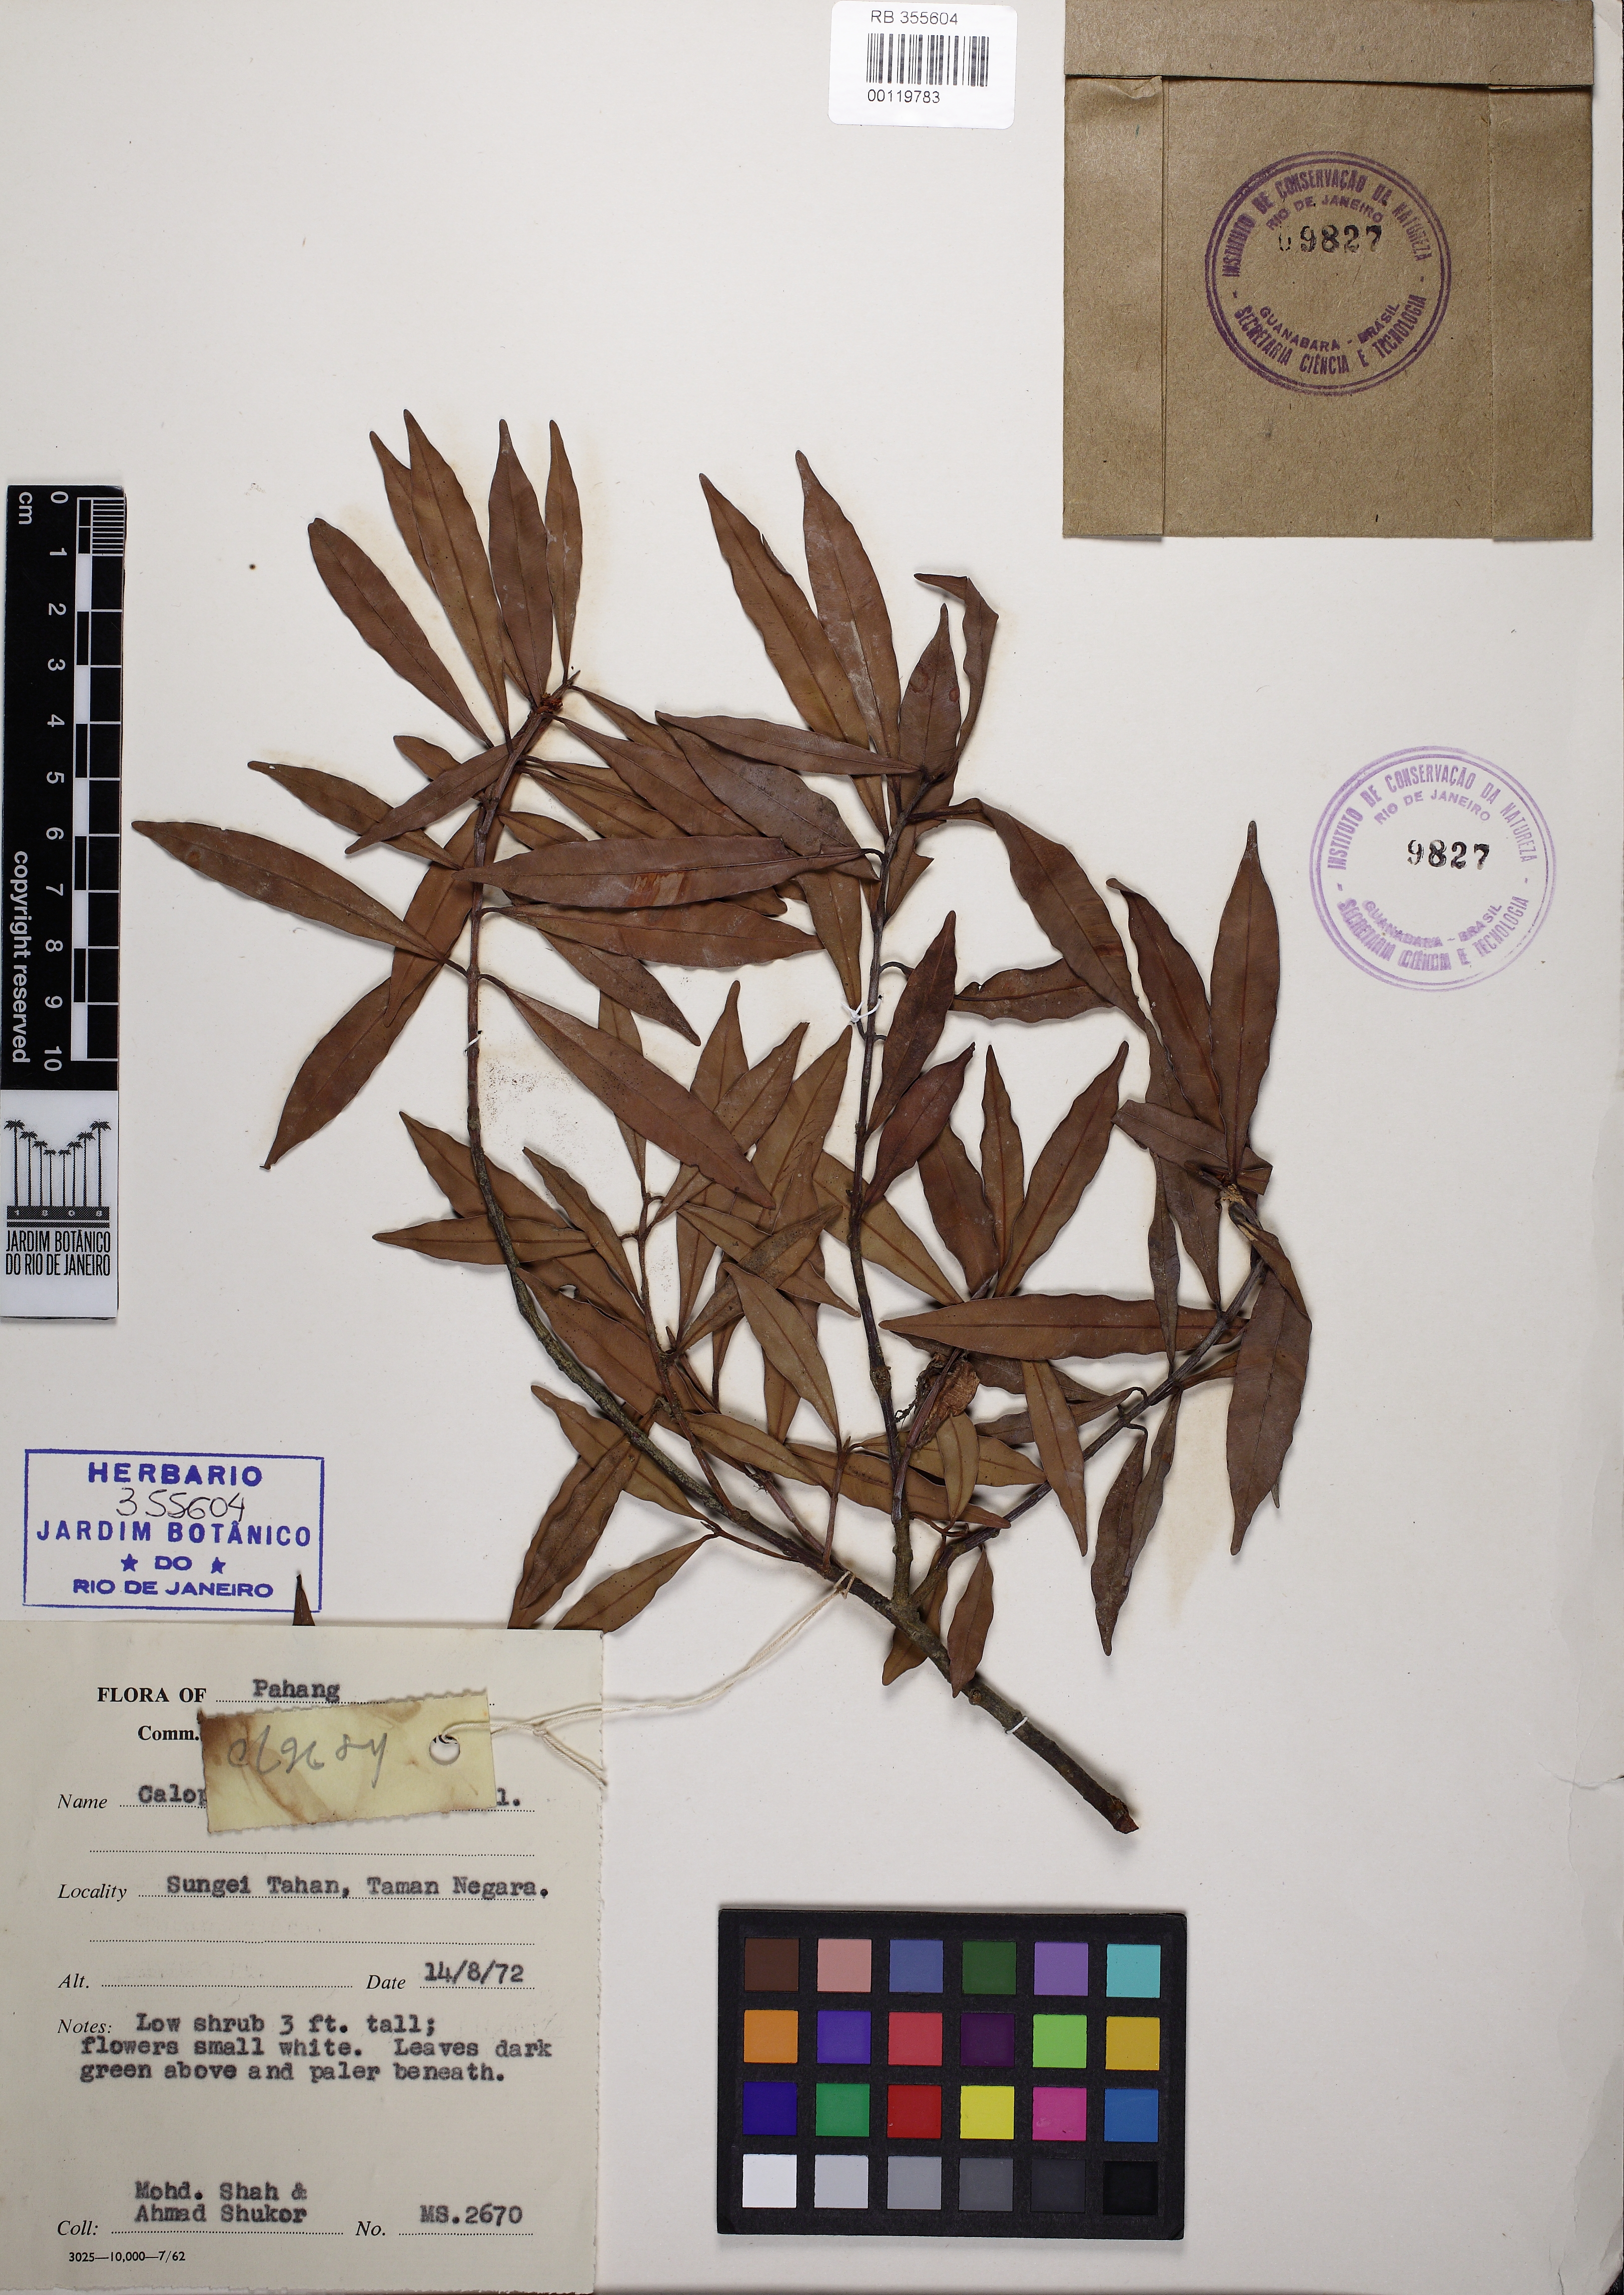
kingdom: Plantae
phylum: Tracheophyta
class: Magnoliopsida
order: Malpighiales
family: Calophyllaceae
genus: Calophyllum
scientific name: Calophyllum rupicola
